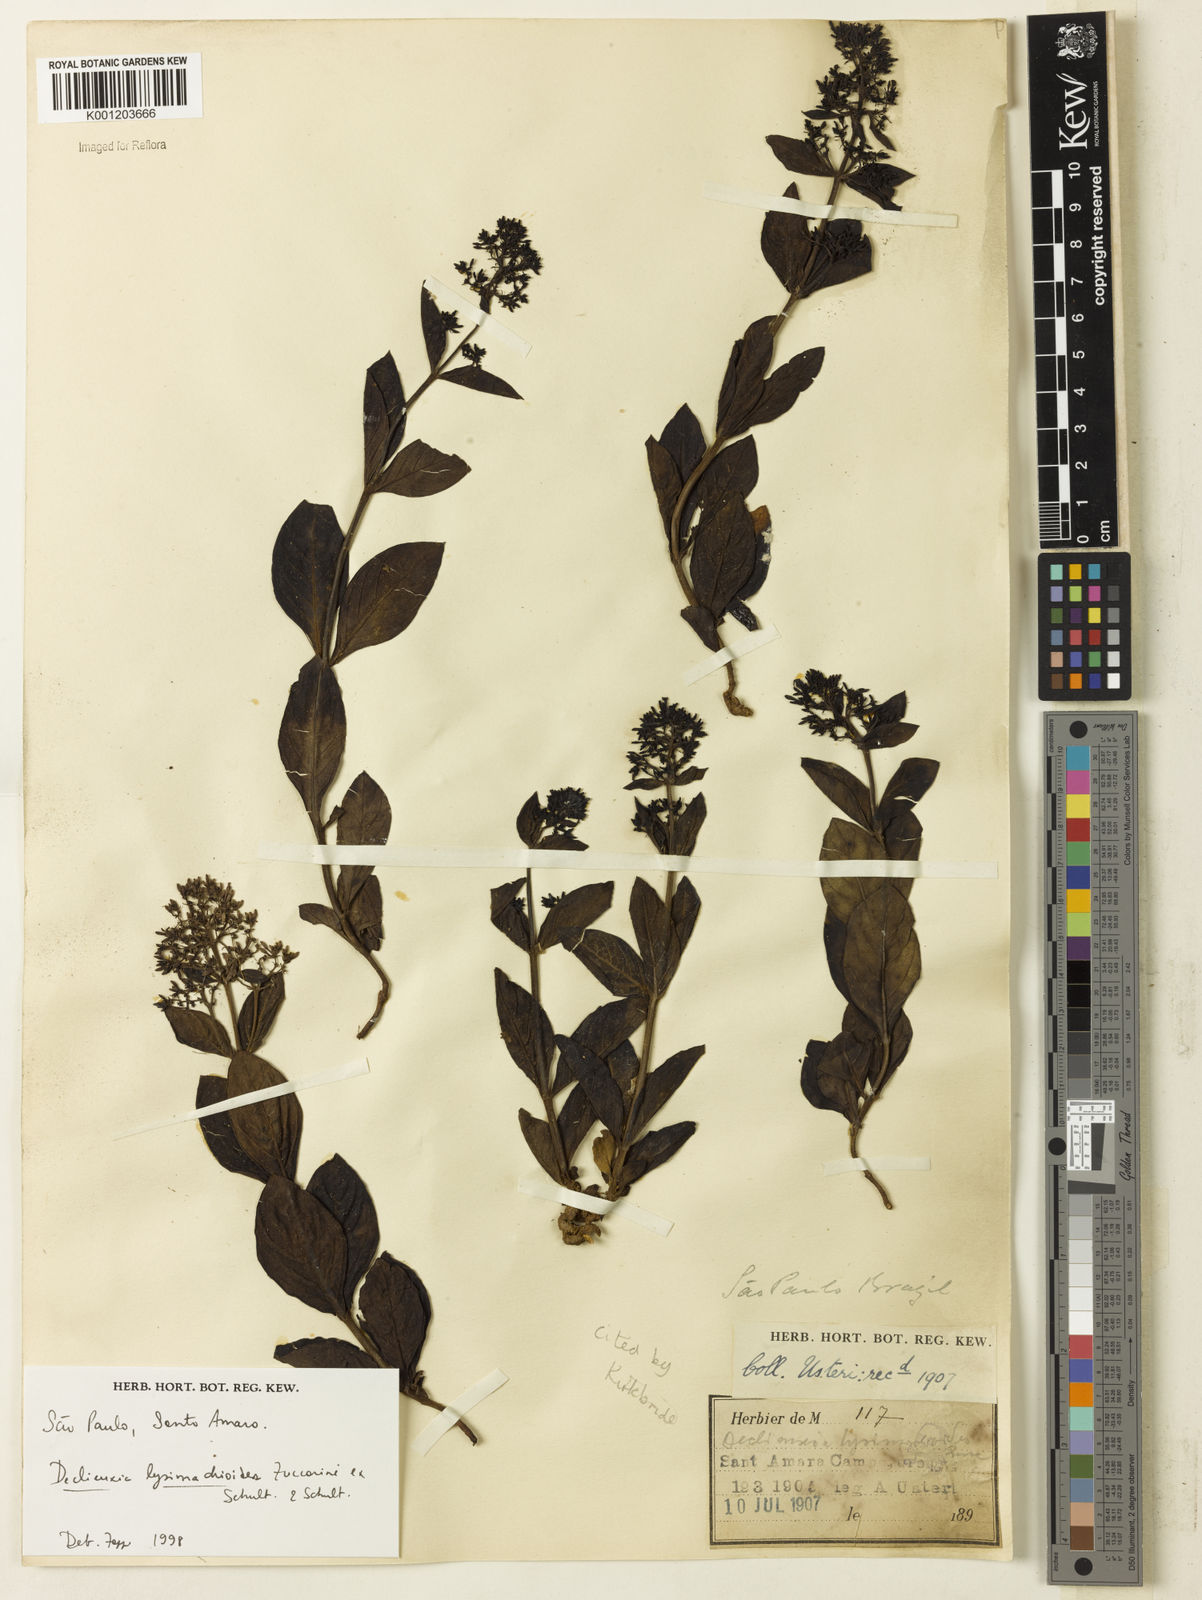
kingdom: Plantae
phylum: Tracheophyta
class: Magnoliopsida
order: Gentianales
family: Rubiaceae
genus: Declieuxia
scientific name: Declieuxia
